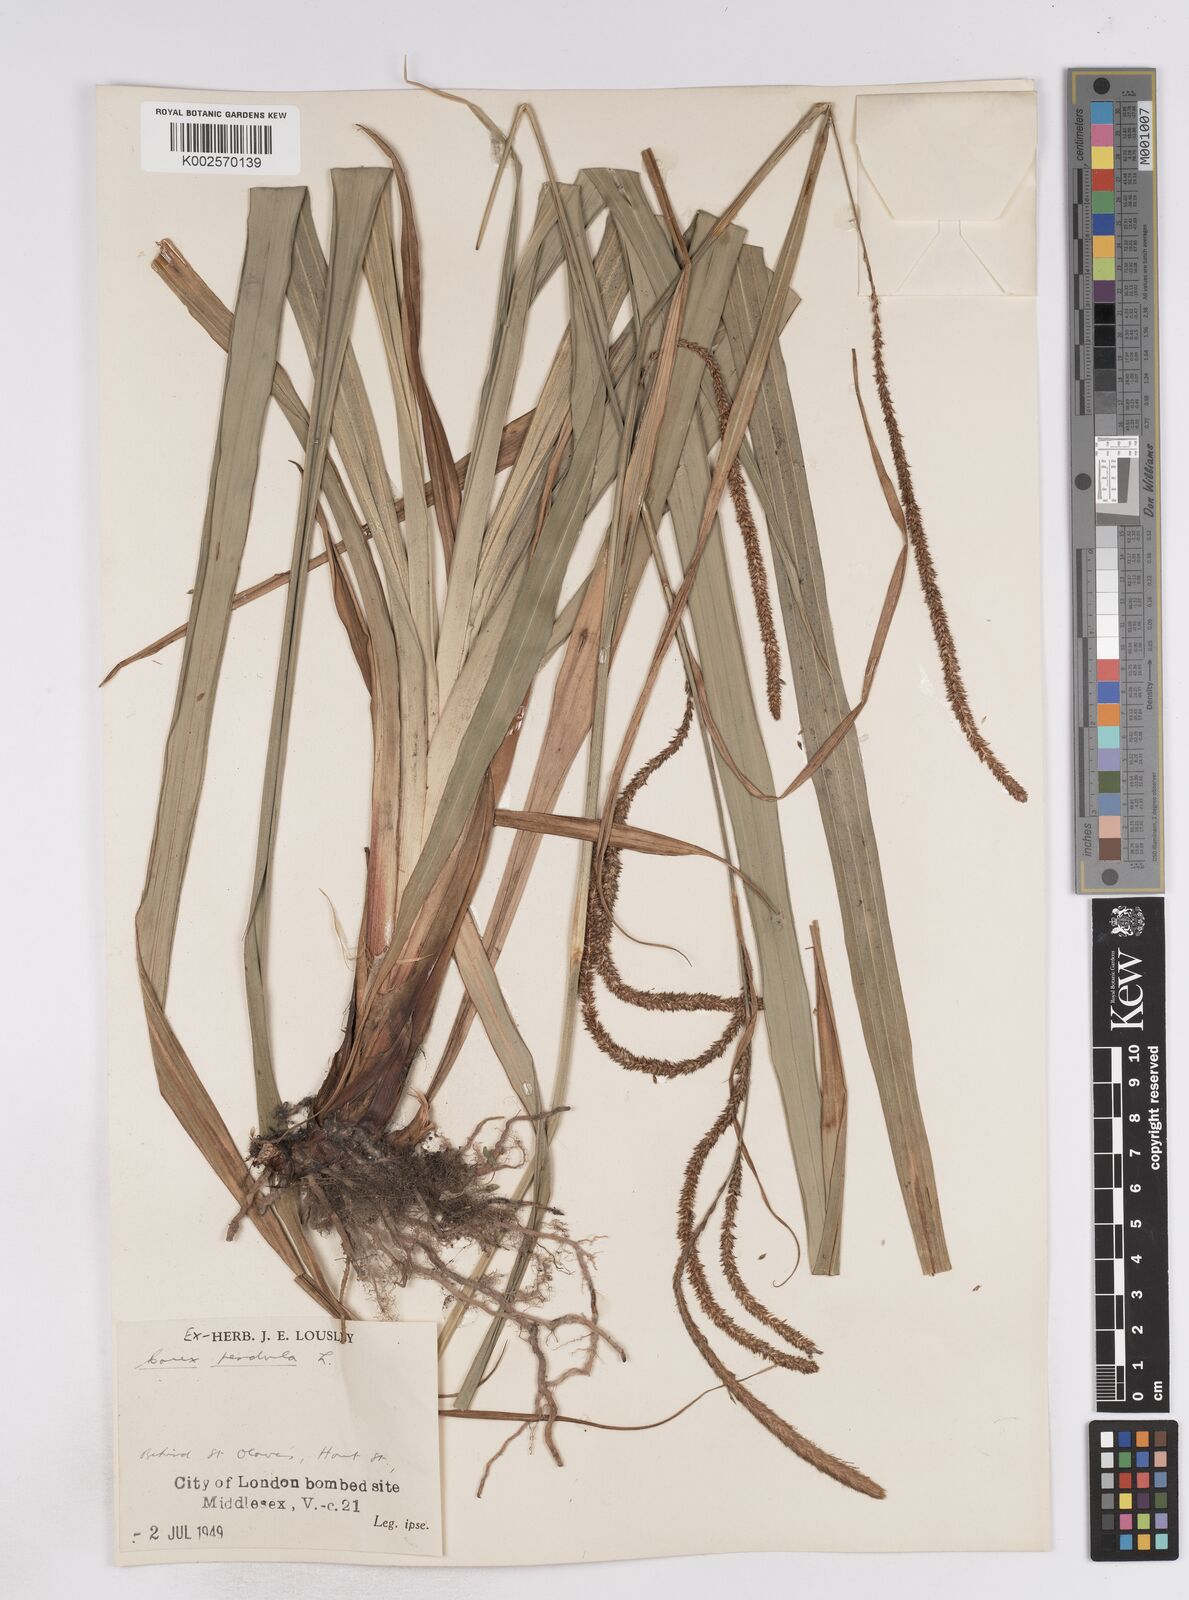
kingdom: Plantae
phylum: Tracheophyta
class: Liliopsida
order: Poales
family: Cyperaceae
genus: Carex
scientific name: Carex pendula
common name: Pendulous sedge
